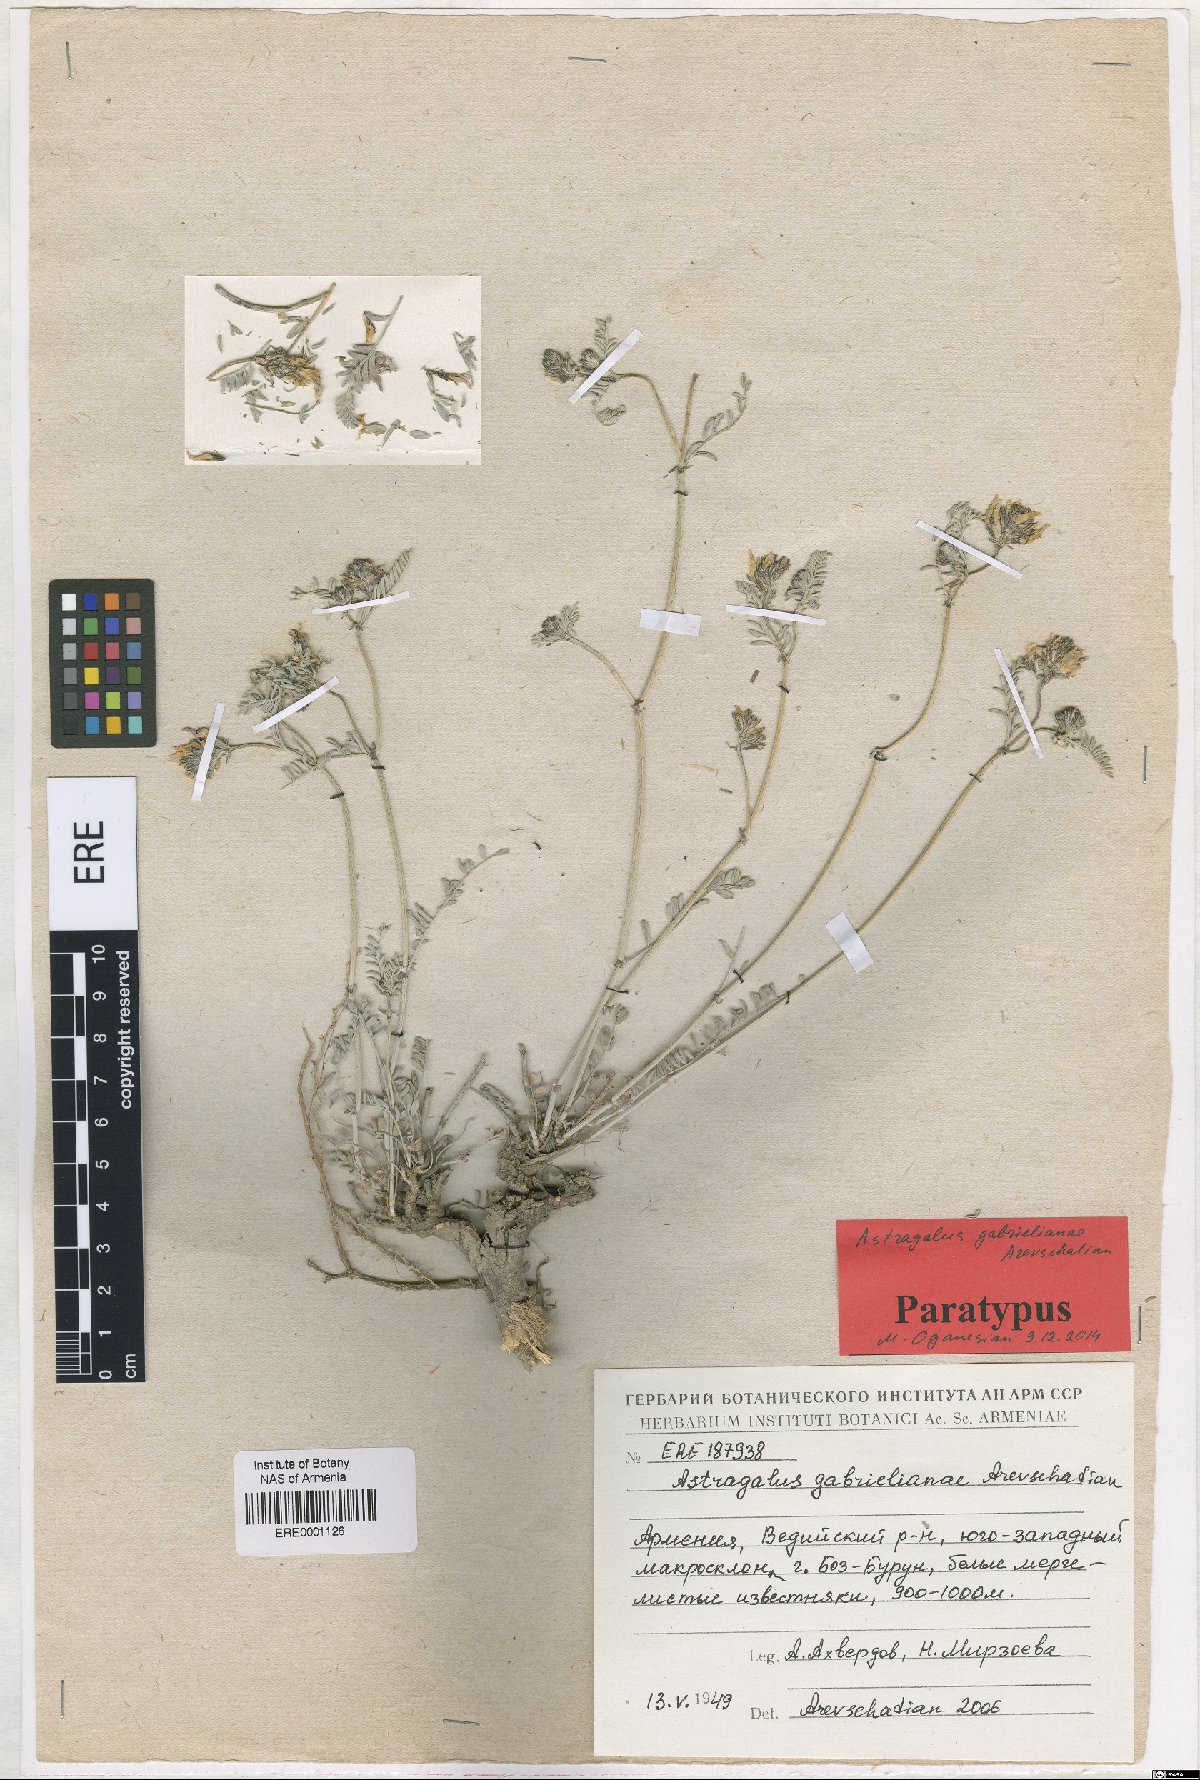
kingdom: Plantae
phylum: Tracheophyta
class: Magnoliopsida
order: Fabales
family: Fabaceae
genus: Astragalus
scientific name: Astragalus gabrelianae
